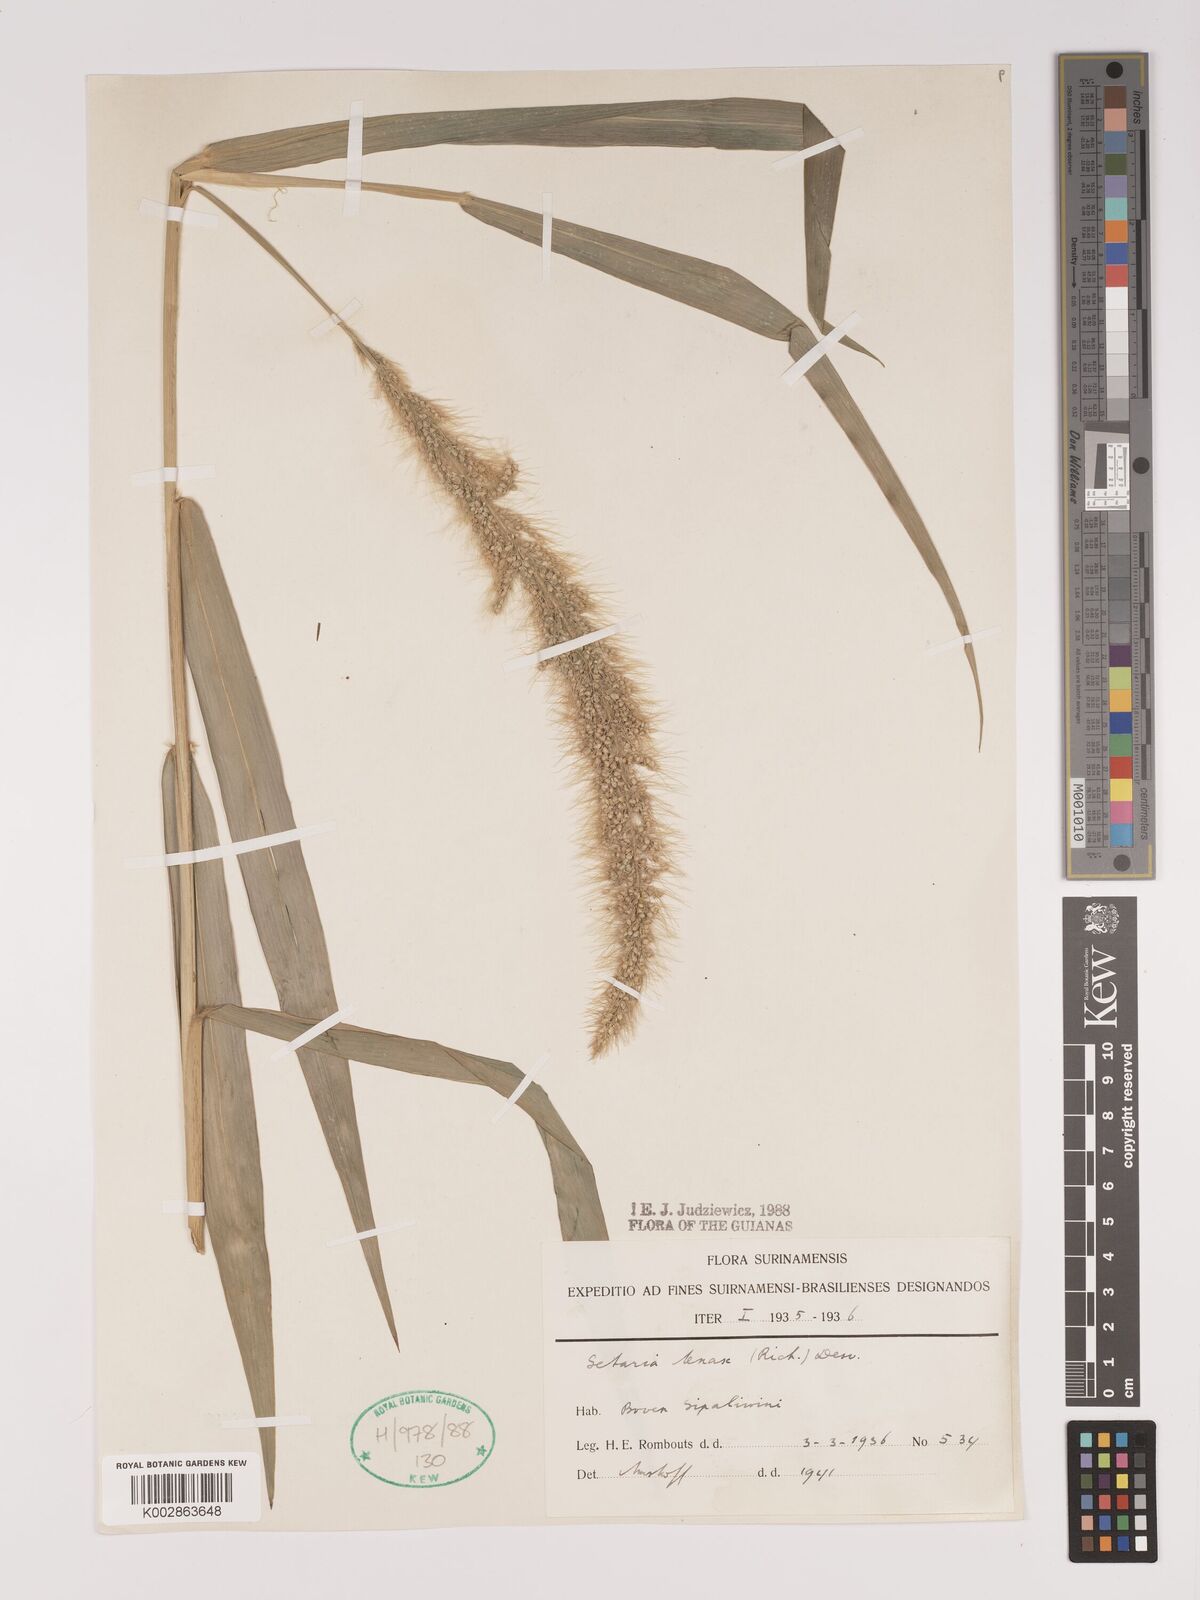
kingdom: Plantae
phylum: Tracheophyta
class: Liliopsida
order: Poales
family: Poaceae
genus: Setaria
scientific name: Setaria tenax
